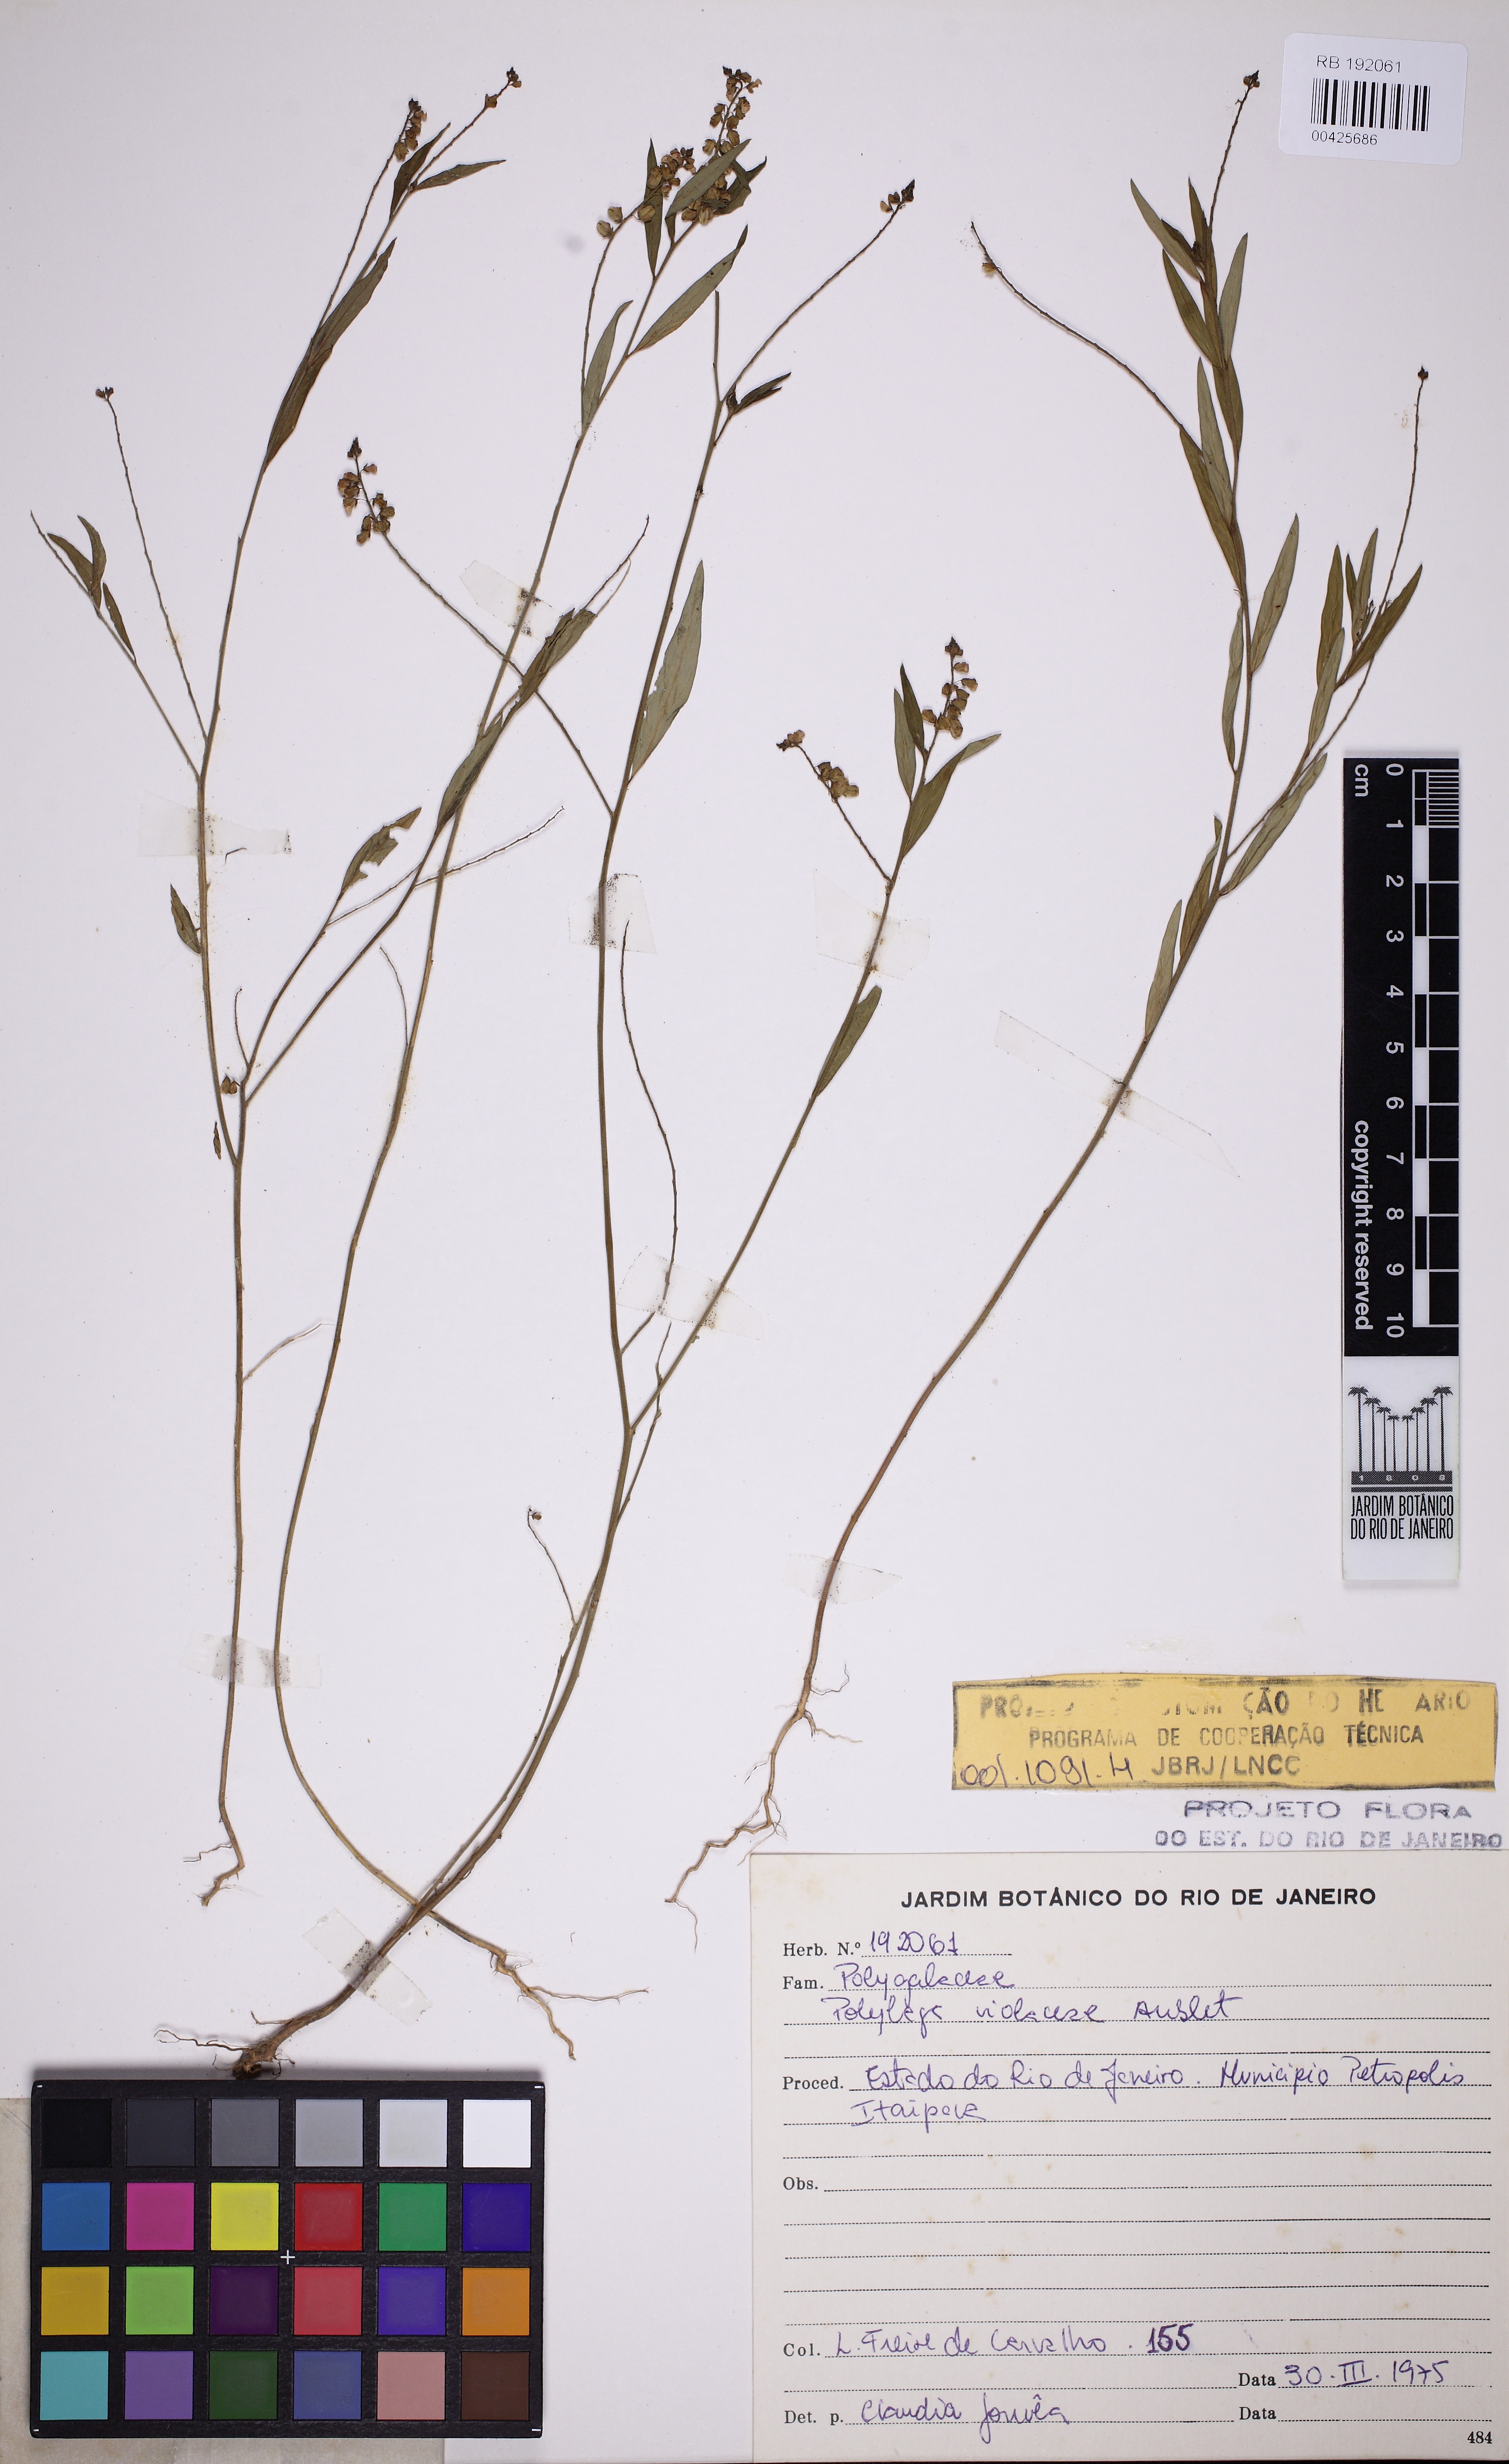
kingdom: Plantae
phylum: Tracheophyta
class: Magnoliopsida
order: Fabales
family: Polygalaceae
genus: Asemeia
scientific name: Asemeia violacea
